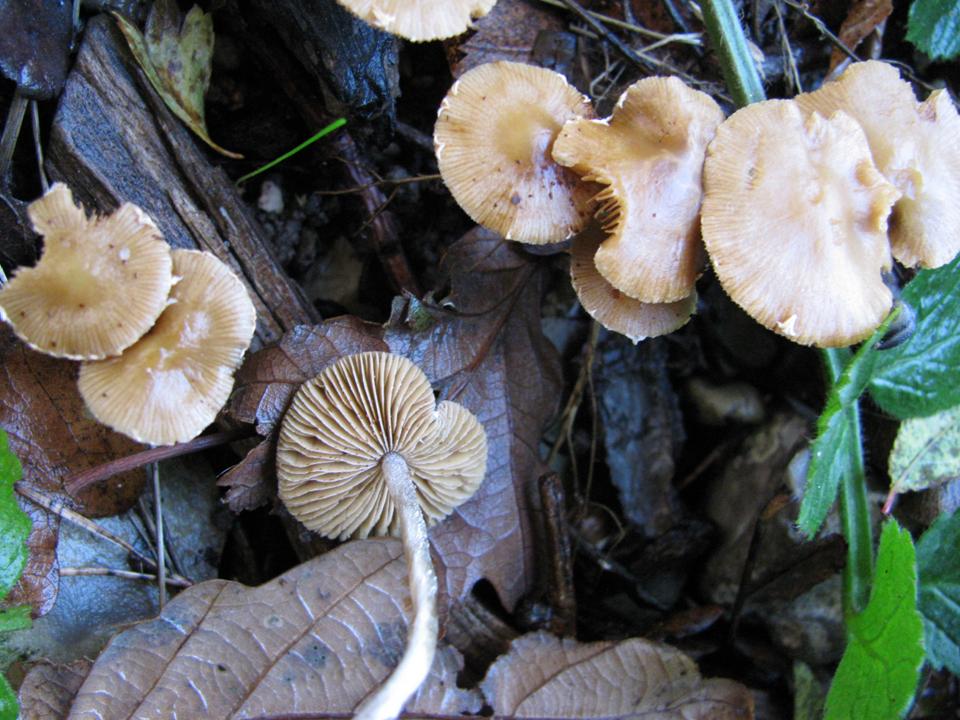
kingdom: Fungi
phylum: Basidiomycota
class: Agaricomycetes
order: Agaricales
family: Bolbitiaceae
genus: Conocybe
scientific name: Conocybe velata
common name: tandet dansehat
